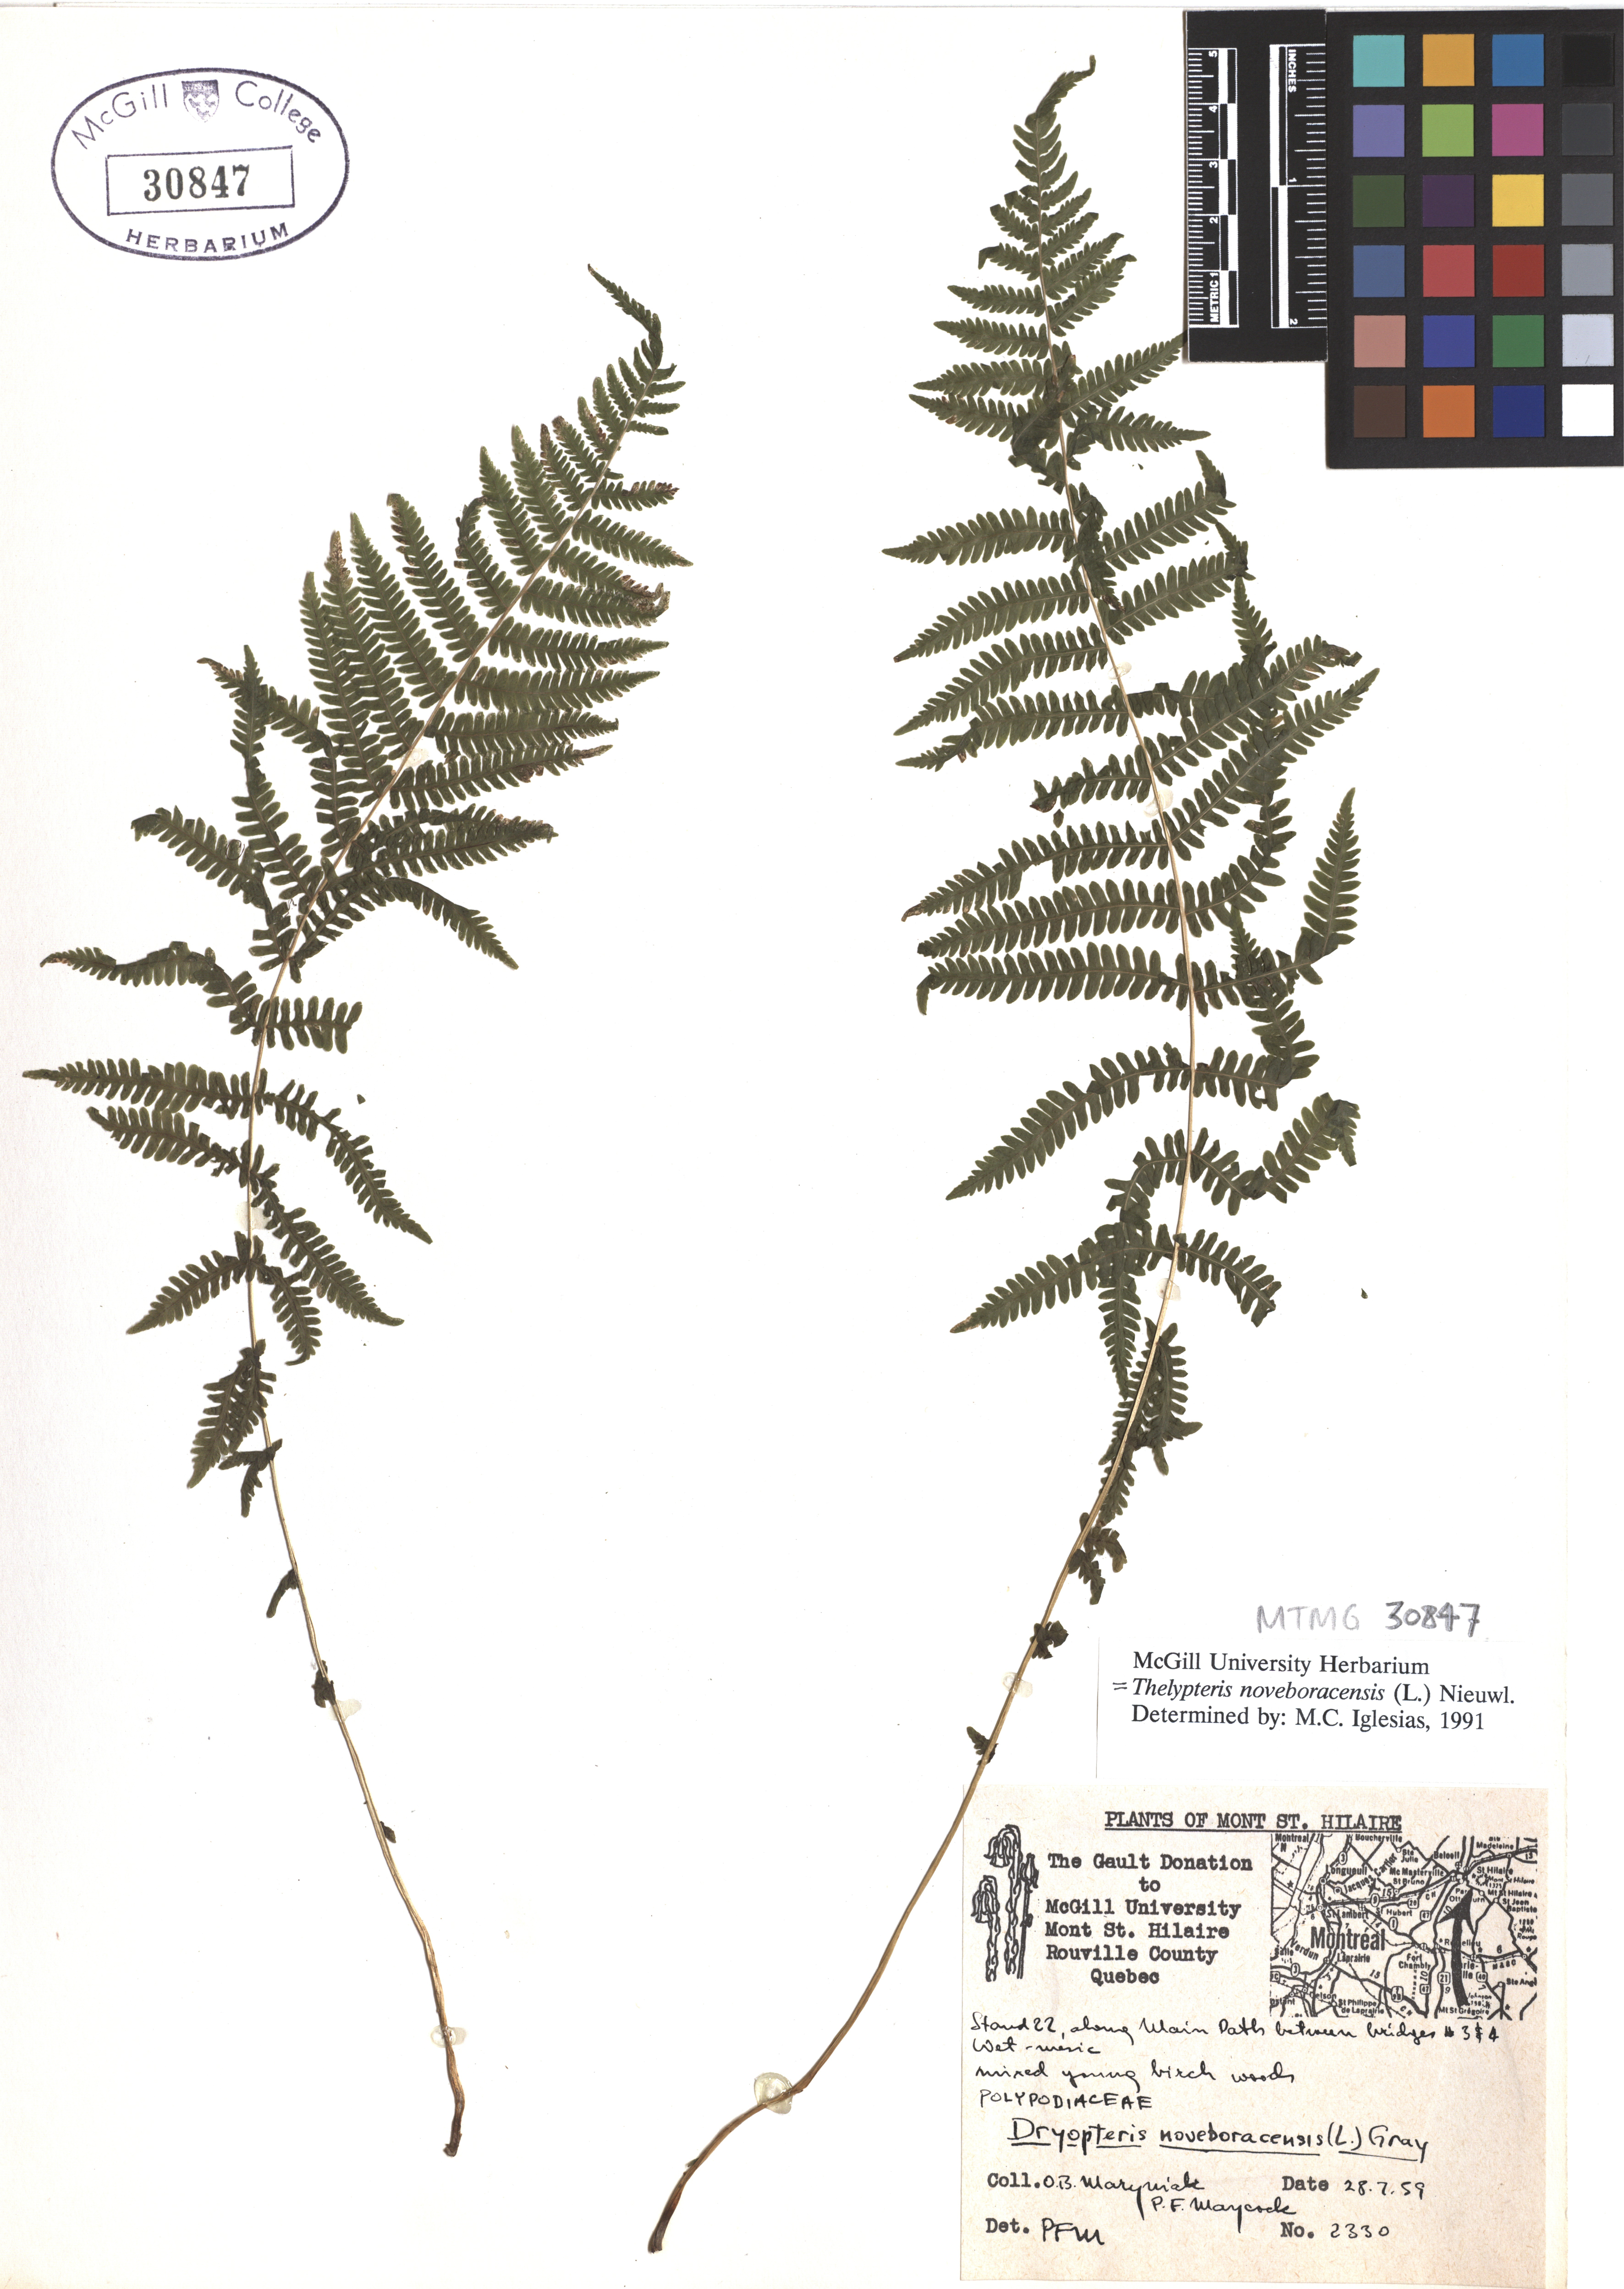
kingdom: Plantae
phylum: Tracheophyta
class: Polypodiopsida
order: Polypodiales
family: Thelypteridaceae
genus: Amauropelta
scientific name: Amauropelta noveboracensis
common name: New york fern
